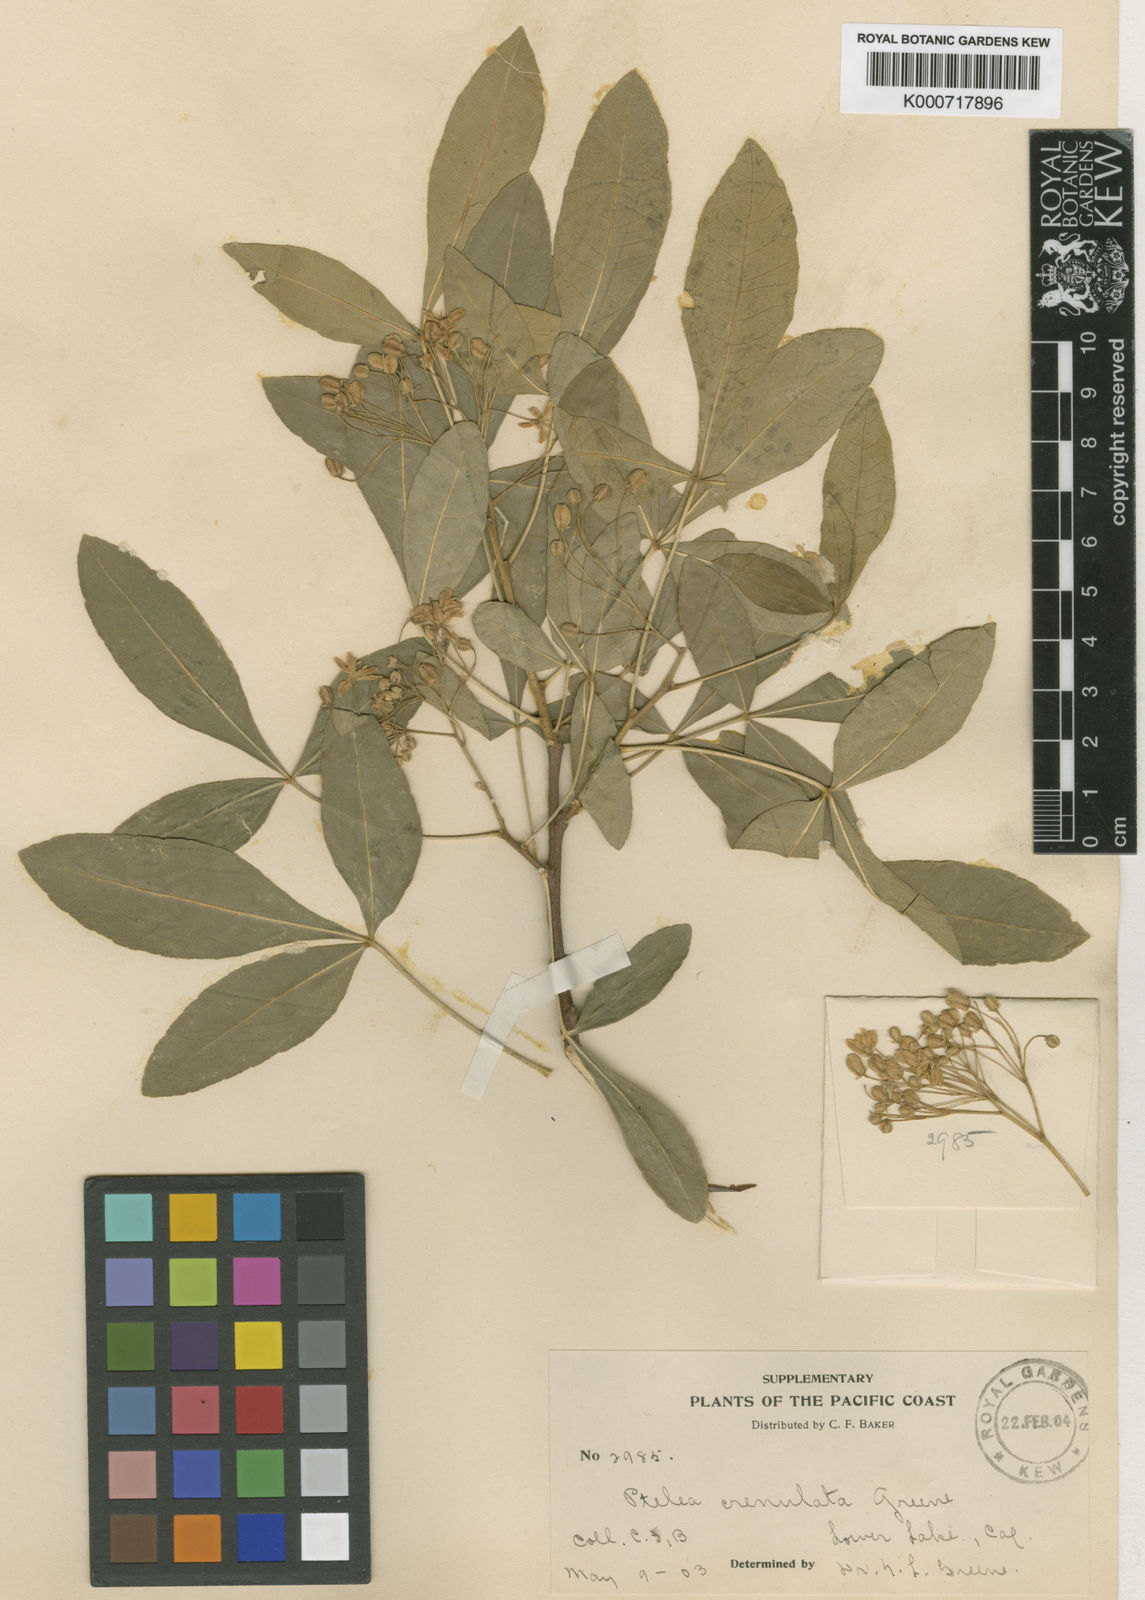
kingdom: Plantae
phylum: Tracheophyta
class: Magnoliopsida
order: Sapindales
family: Rutaceae
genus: Ptelea
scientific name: Ptelea trifoliata
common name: Common hop-tree
